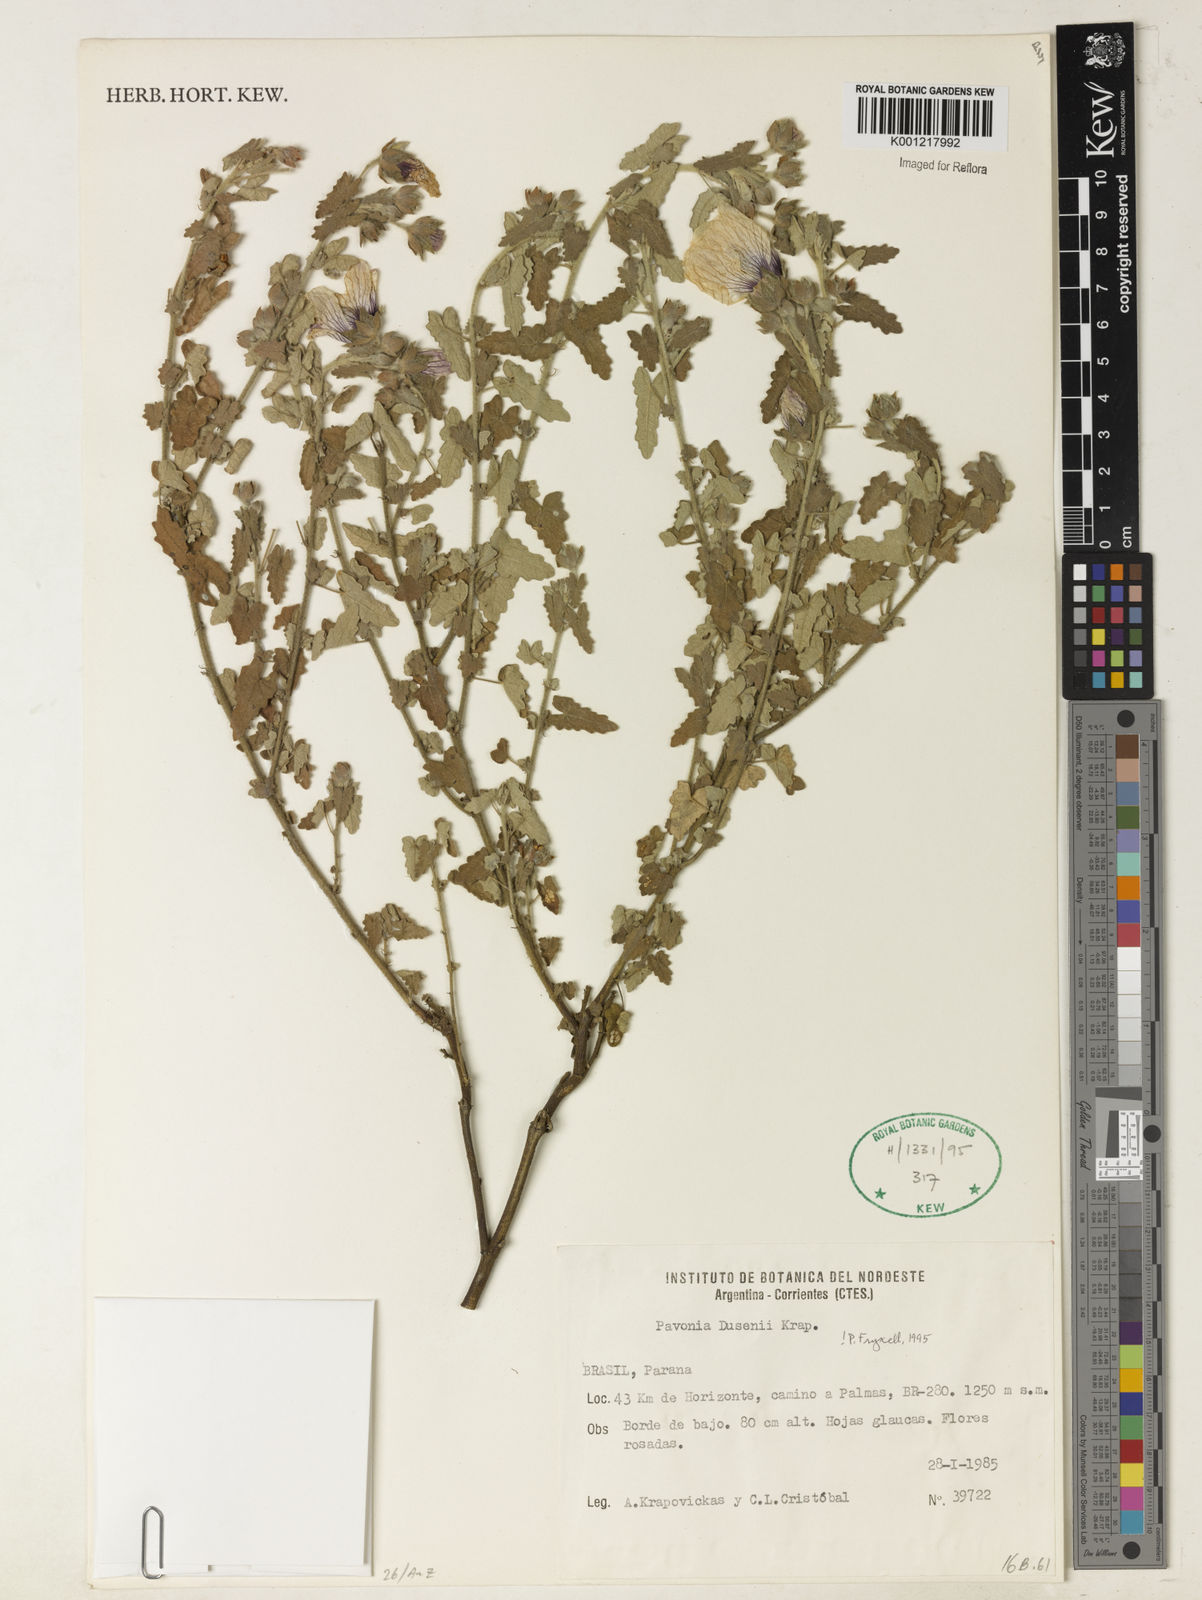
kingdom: Plantae
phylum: Tracheophyta
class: Magnoliopsida
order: Malvales
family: Malvaceae
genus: Pavonia
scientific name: Pavonia dusenii
